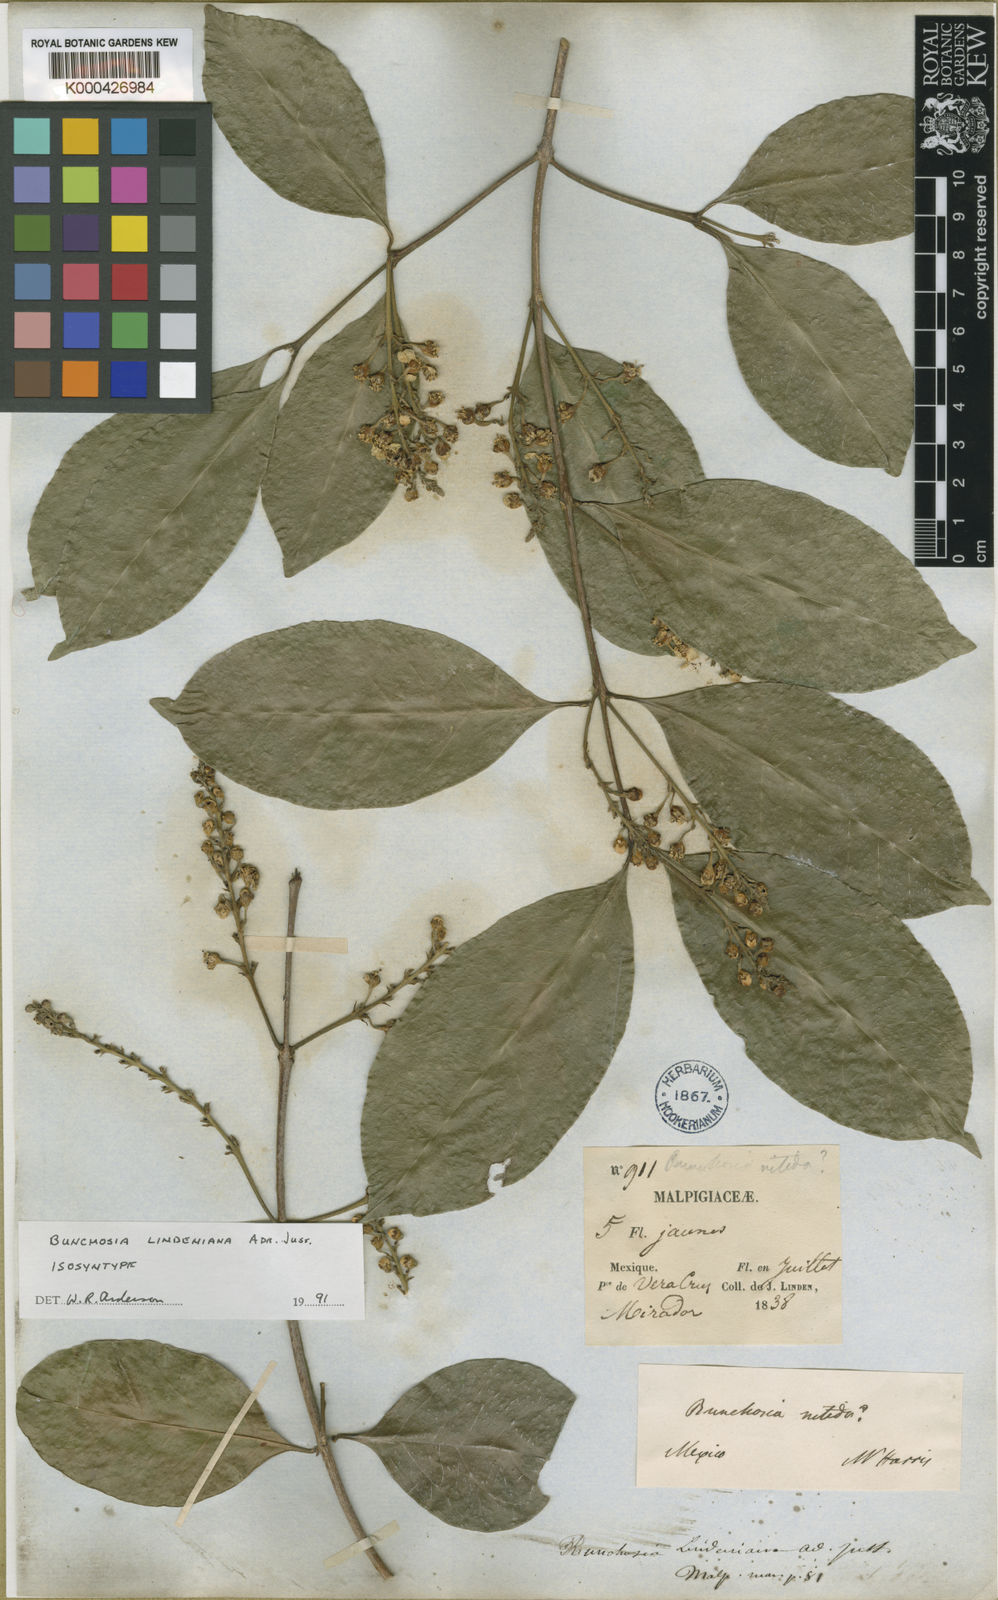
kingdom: Plantae
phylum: Tracheophyta
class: Magnoliopsida
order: Malpighiales
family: Malpighiaceae
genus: Bunchosia
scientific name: Bunchosia lindeniana
